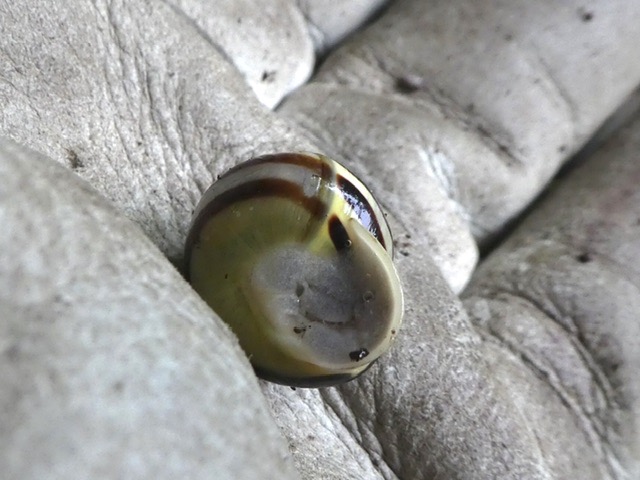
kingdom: Animalia
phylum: Mollusca
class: Gastropoda
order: Stylommatophora
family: Helicidae
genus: Cepaea
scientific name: Cepaea hortensis
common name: Havesnegl
